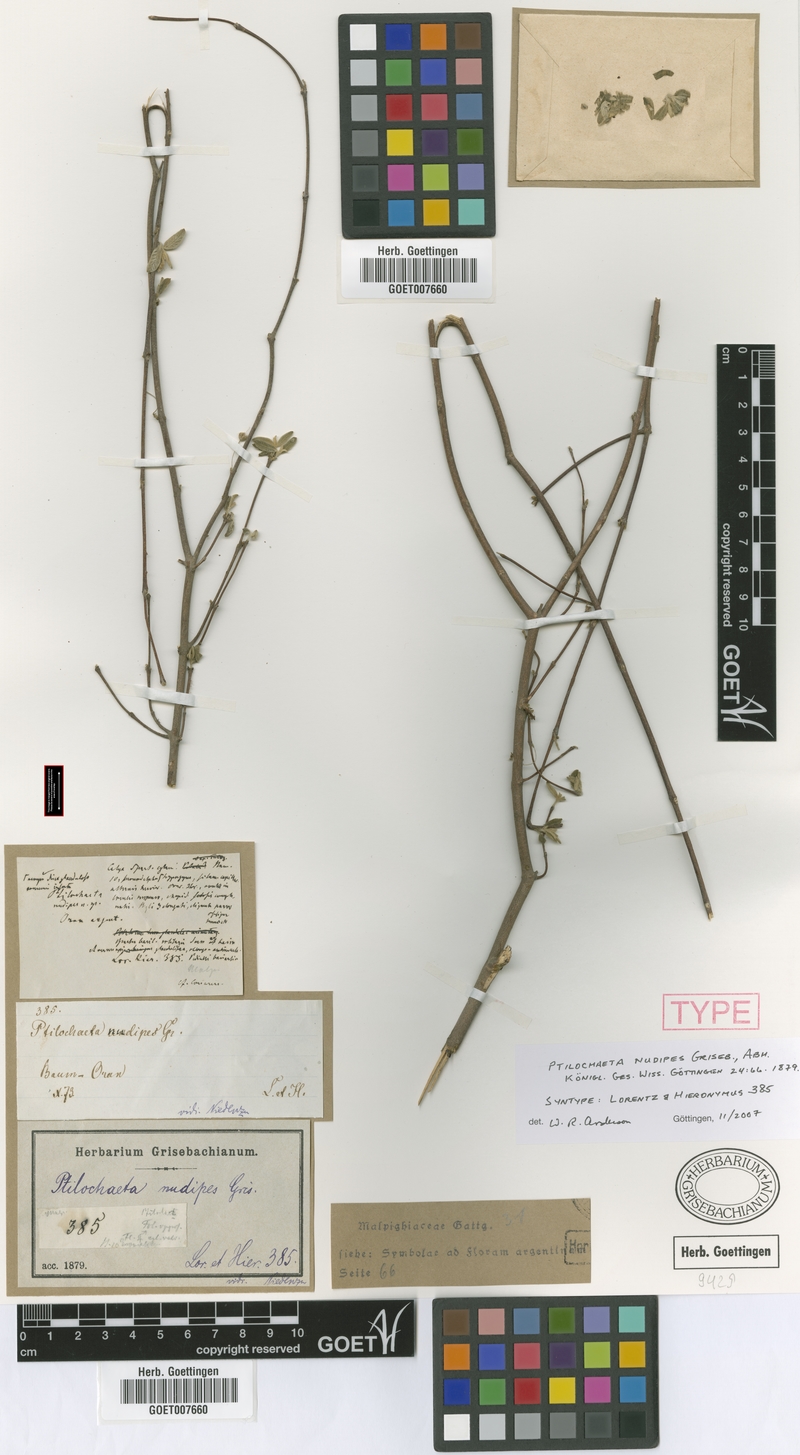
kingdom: Plantae
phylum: Tracheophyta
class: Magnoliopsida
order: Malpighiales
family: Malpighiaceae
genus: Ptilochaeta
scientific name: Ptilochaeta nudipes
